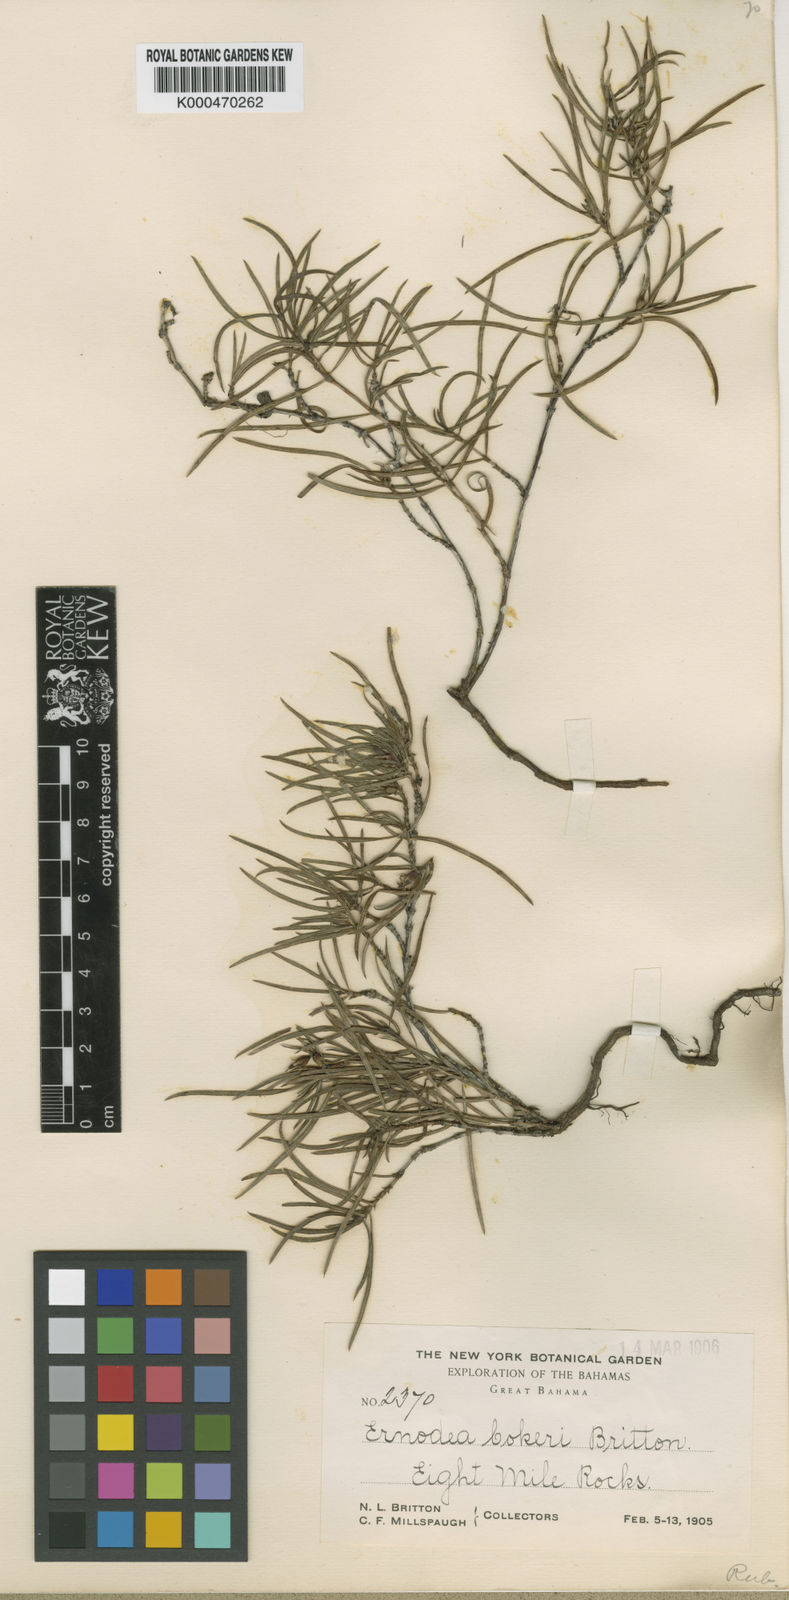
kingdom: Plantae
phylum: Tracheophyta
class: Magnoliopsida
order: Gentianales
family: Rubiaceae
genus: Ernodea
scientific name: Ernodea cokeri
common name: One-nerved ernodea
